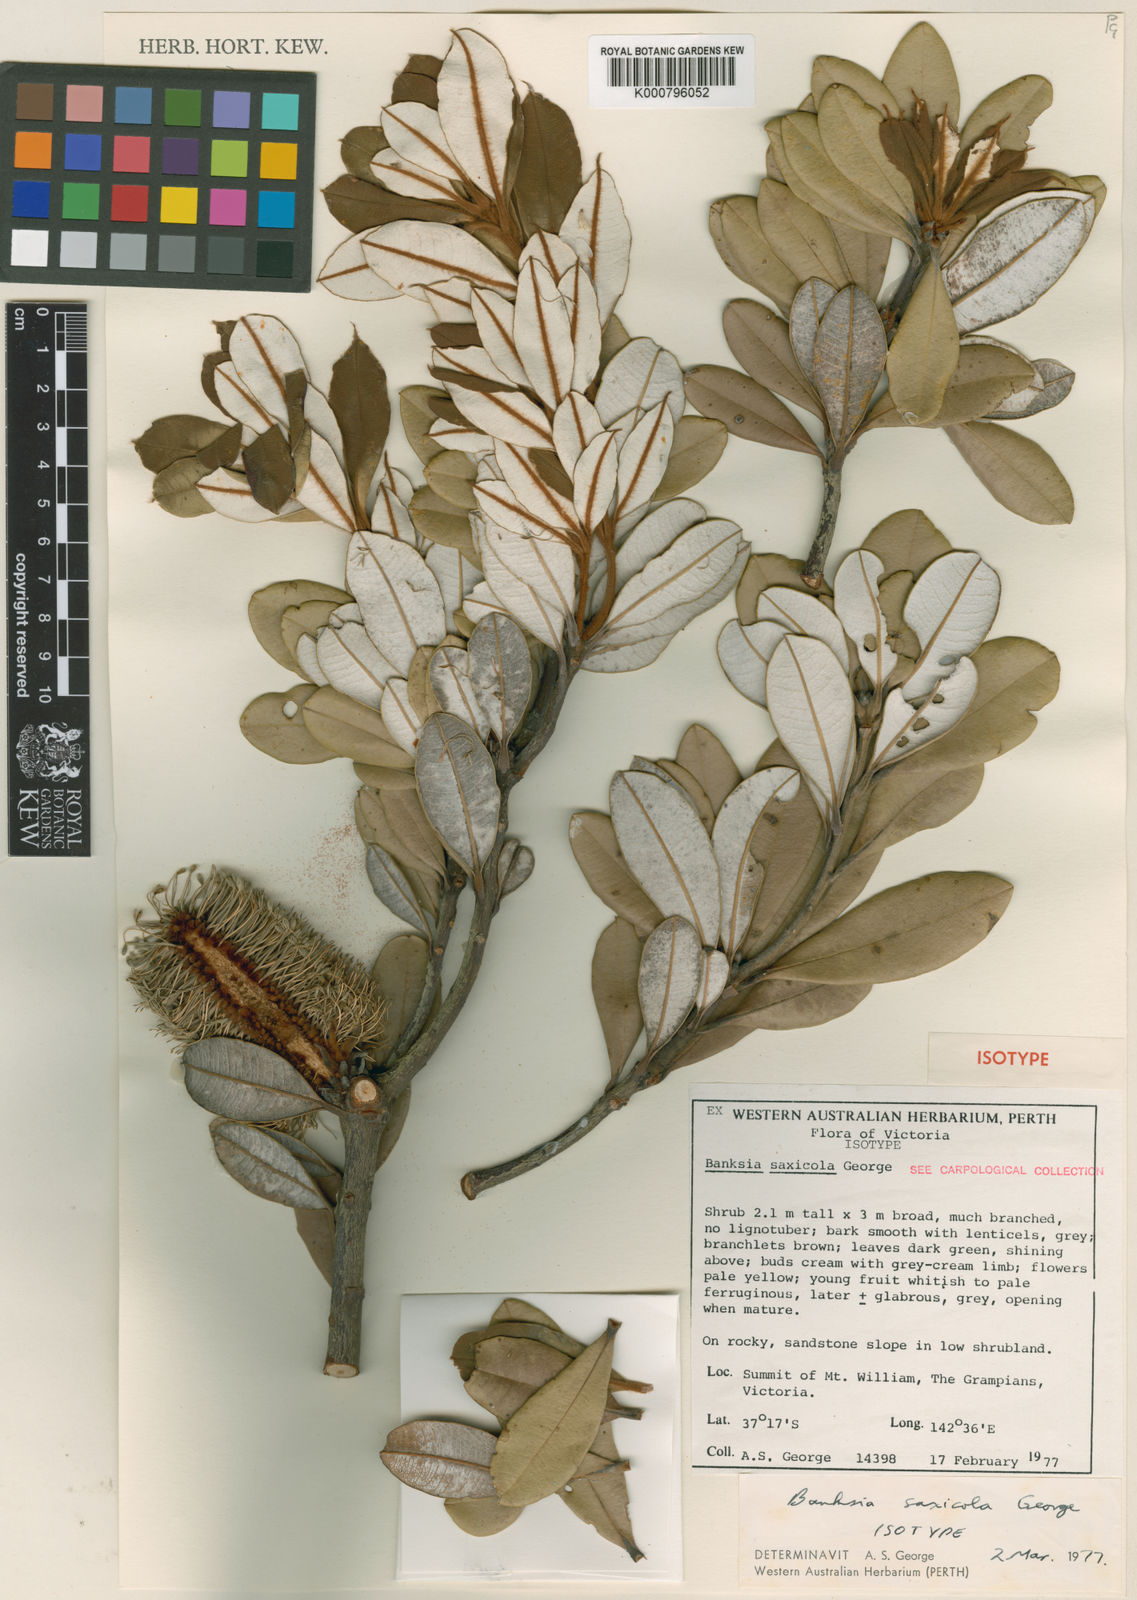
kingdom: Plantae
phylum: Tracheophyta
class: Magnoliopsida
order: Proteales
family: Proteaceae
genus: Banksia
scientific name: Banksia saxicola
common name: Grampians banksia
